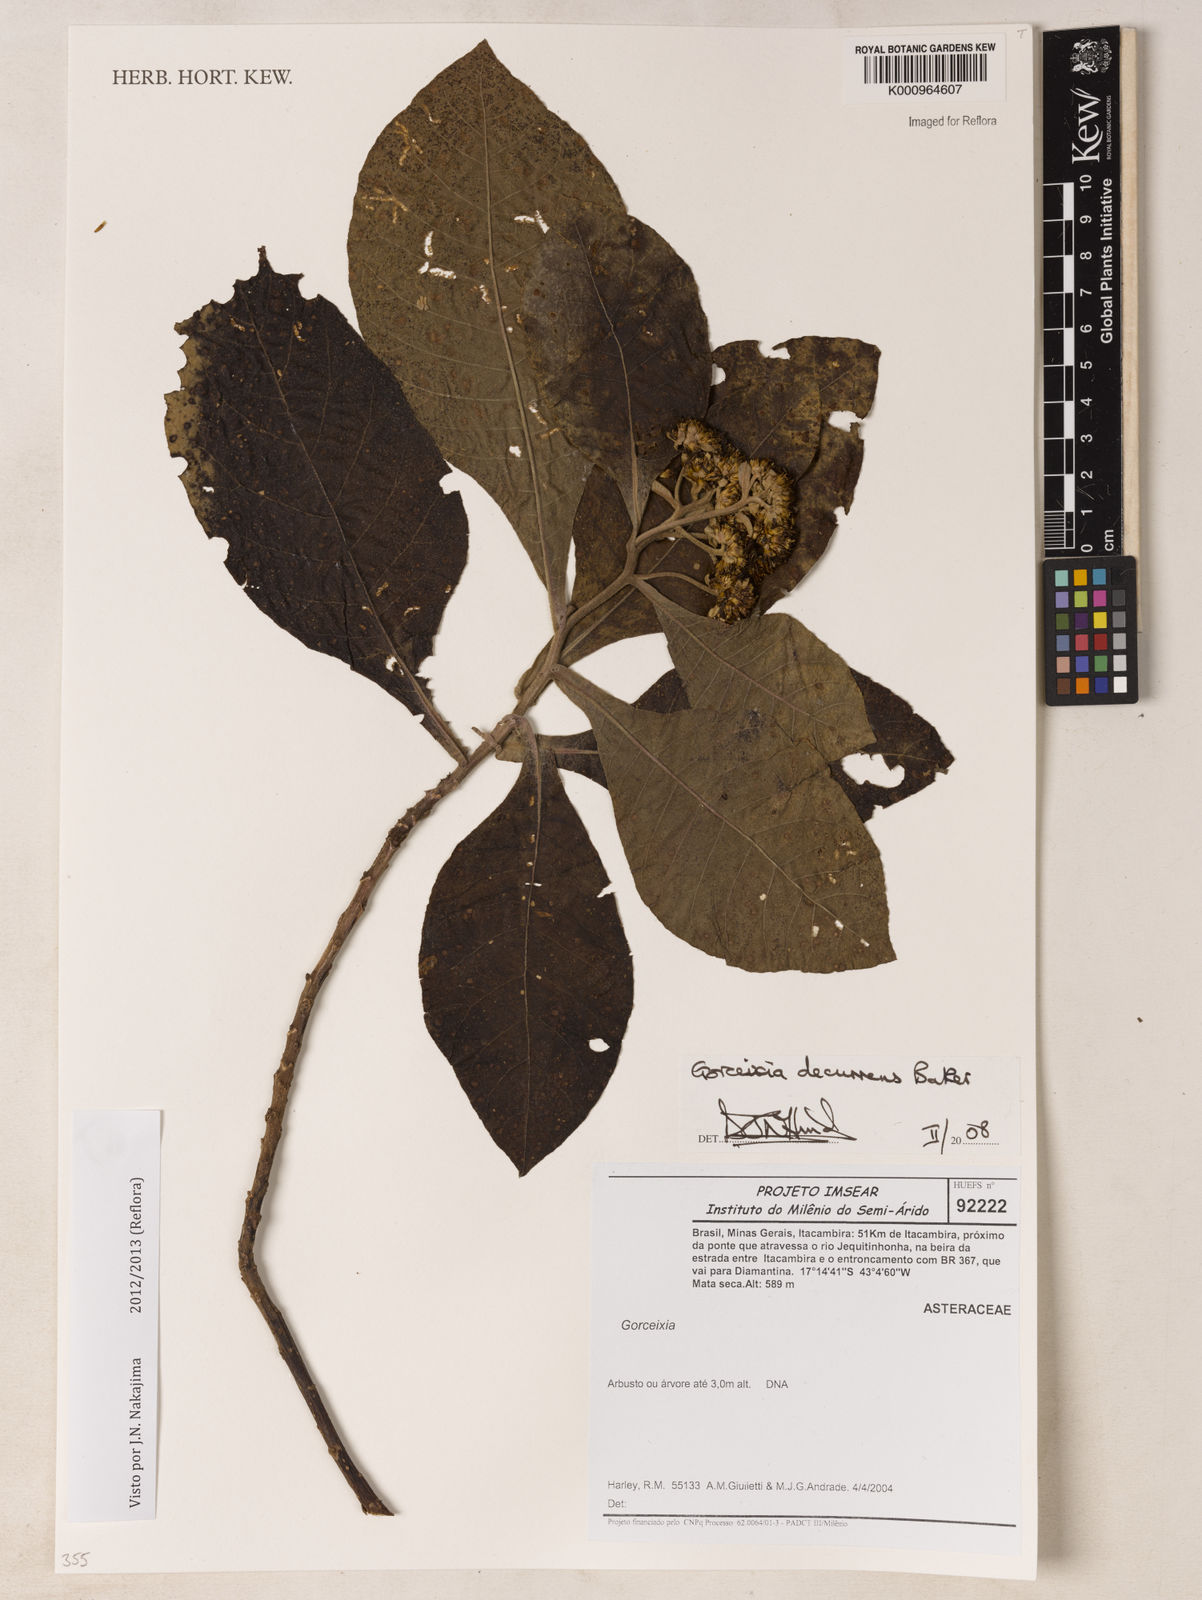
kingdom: Plantae
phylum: Tracheophyta
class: Magnoliopsida
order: Asterales
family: Asteraceae
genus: Gorceixia
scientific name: Gorceixia decurrens
